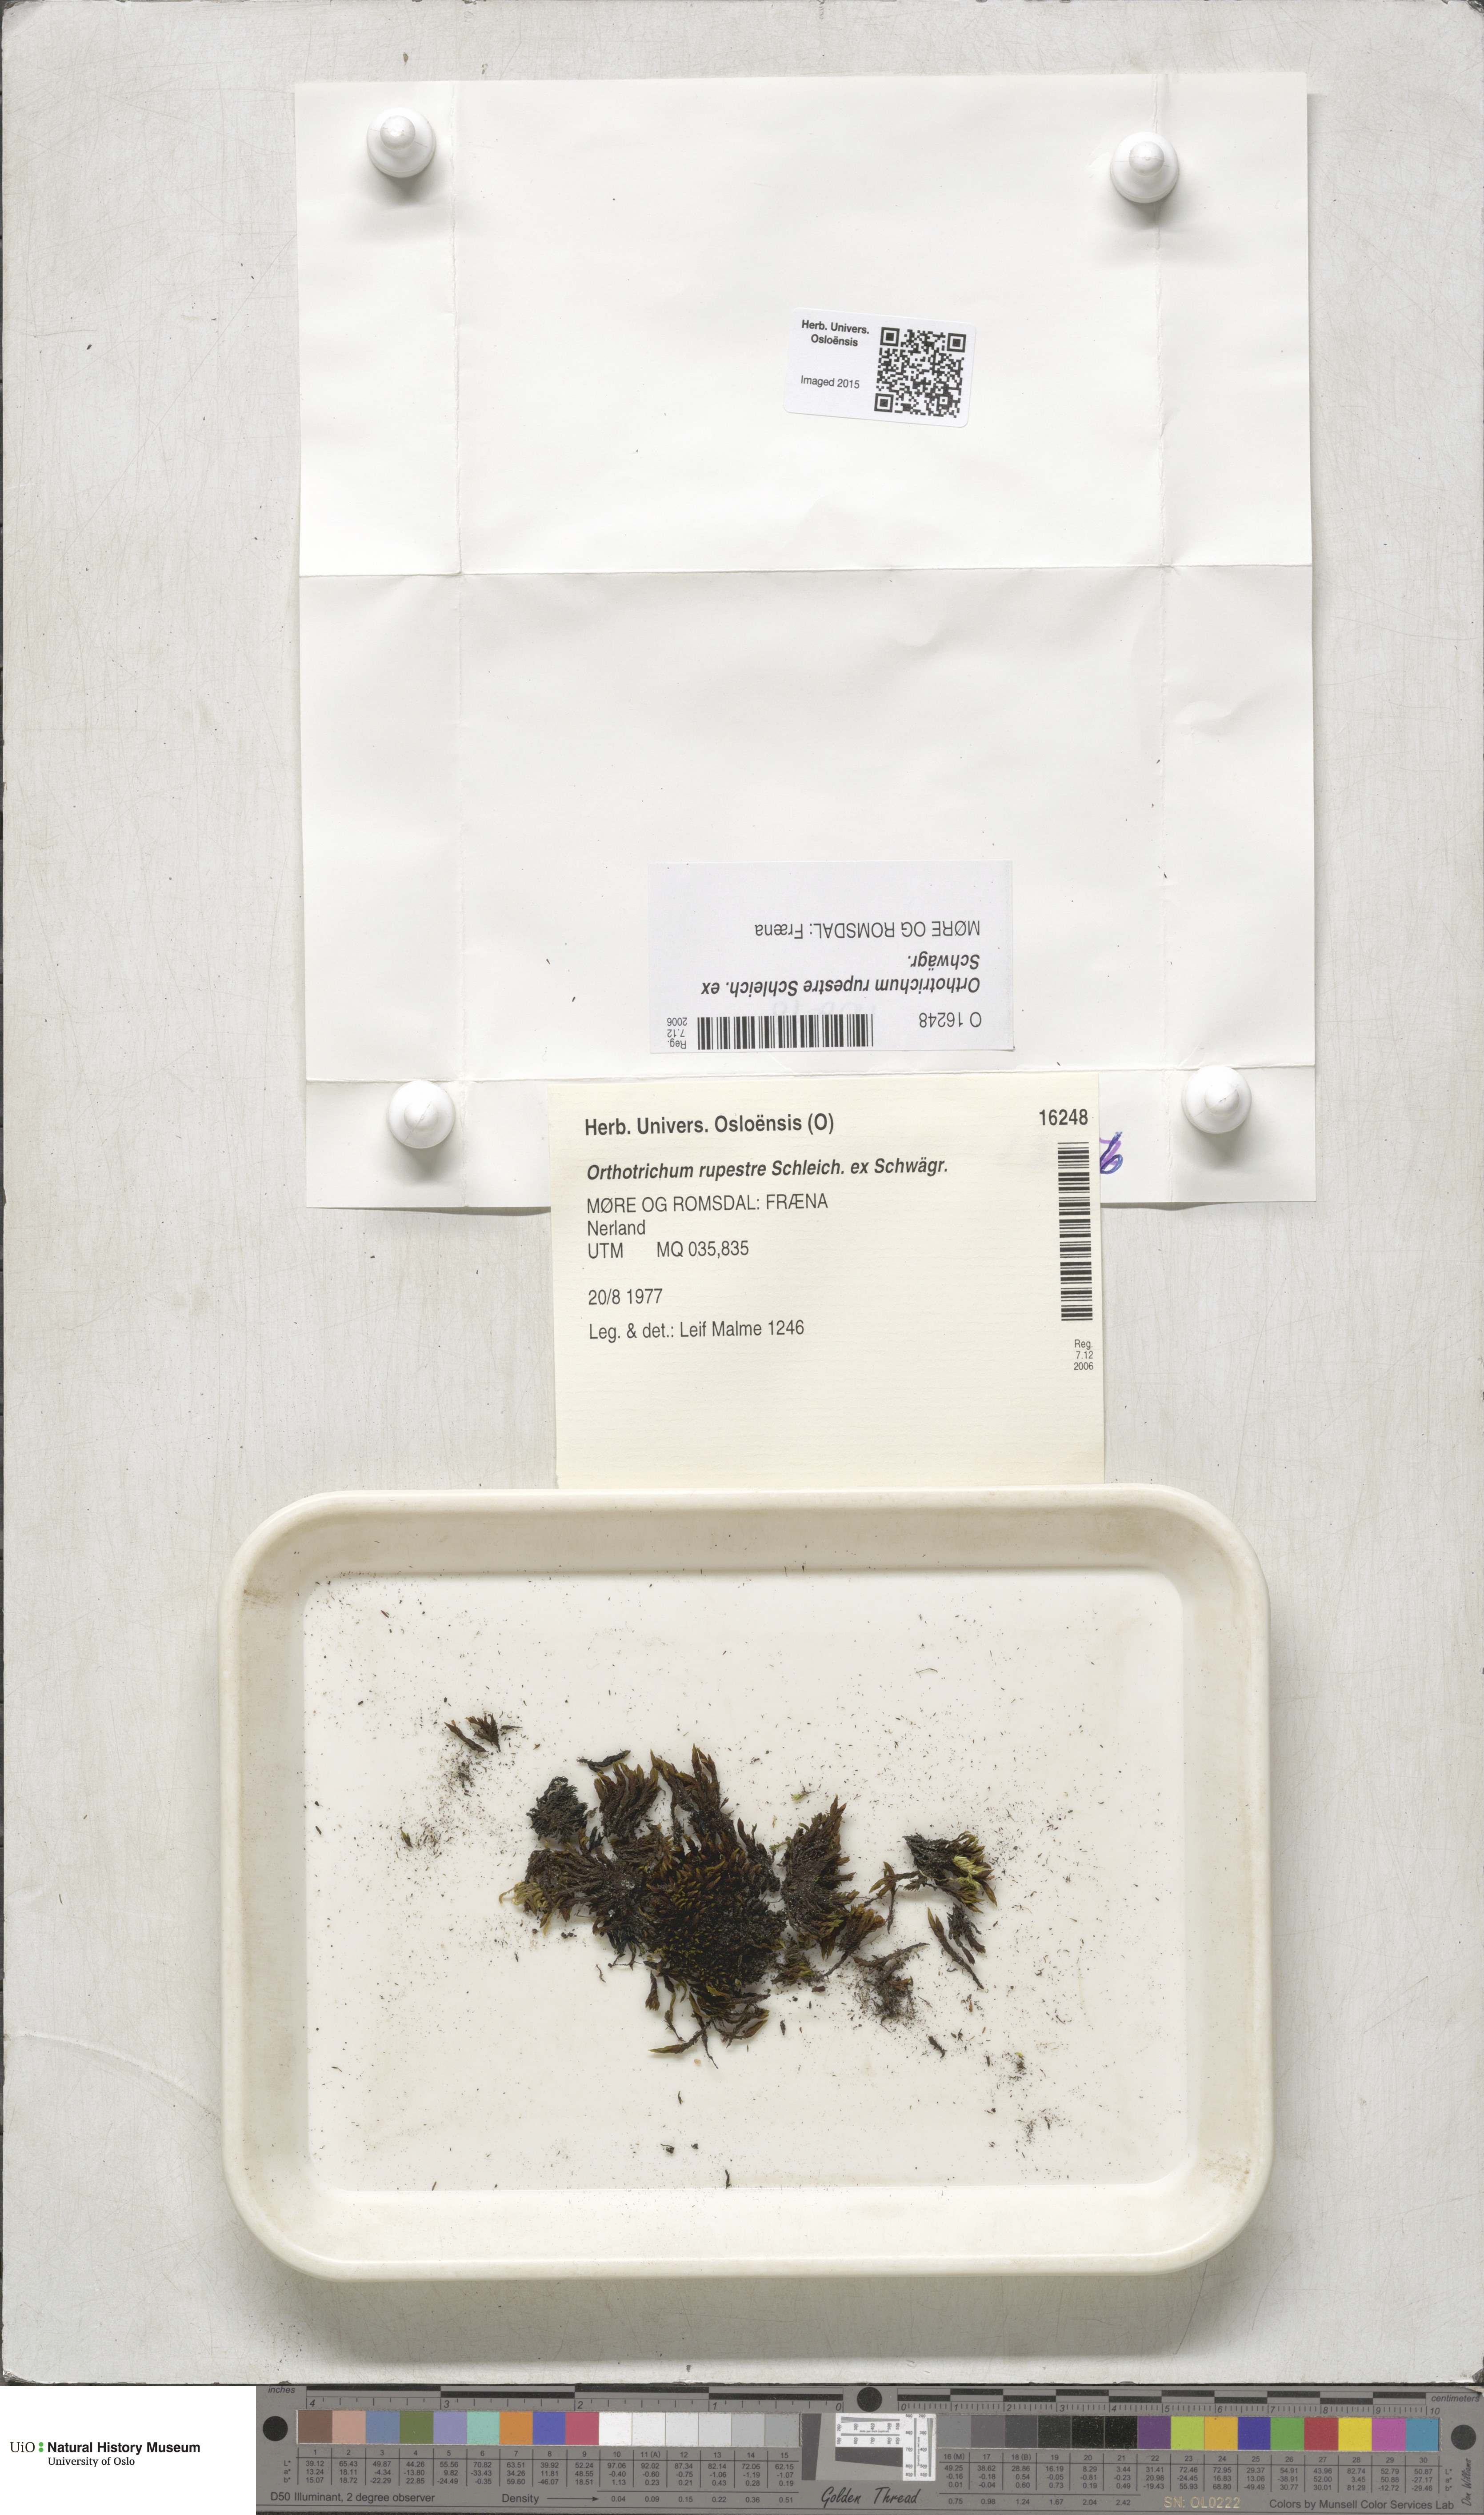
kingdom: Plantae
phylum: Bryophyta
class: Bryopsida
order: Orthotrichales
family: Orthotrichaceae
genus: Lewinskya
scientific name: Lewinskya rupestris
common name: Rock bristle-moss
